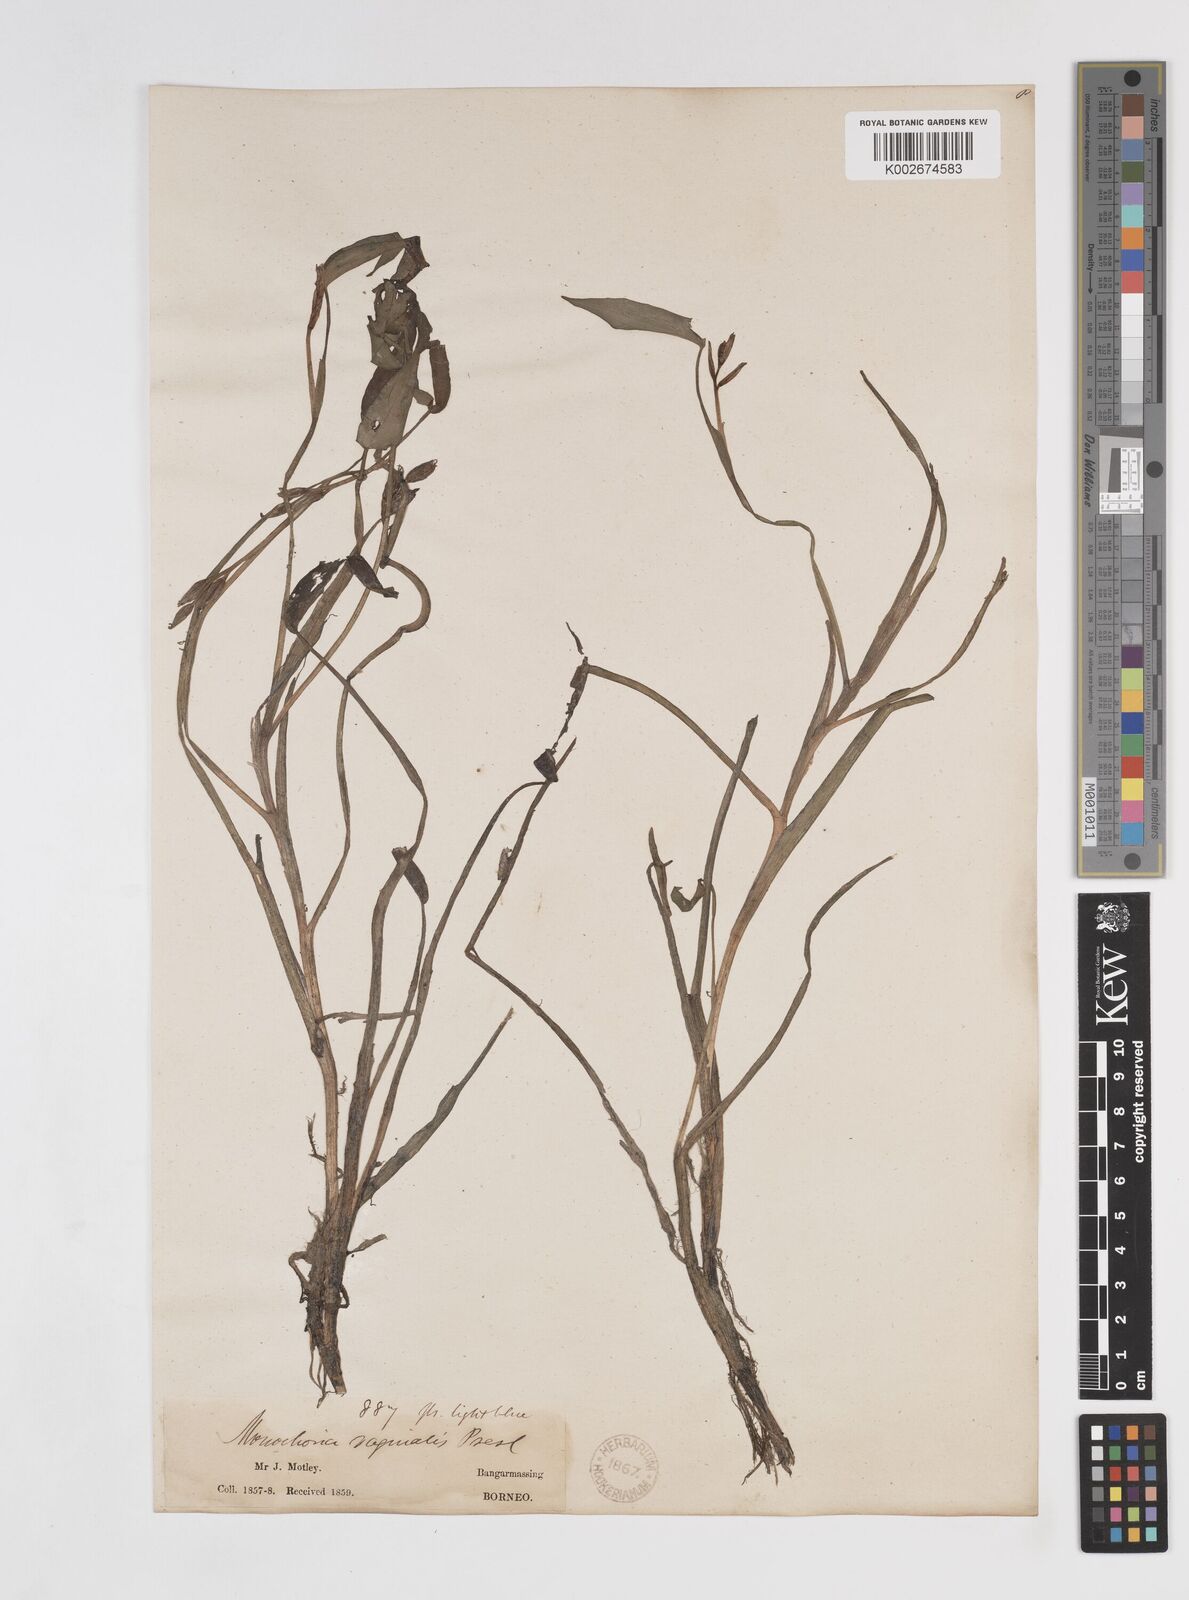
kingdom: Plantae
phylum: Tracheophyta
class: Liliopsida
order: Commelinales
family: Pontederiaceae
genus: Pontederia
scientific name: Pontederia vaginalis
